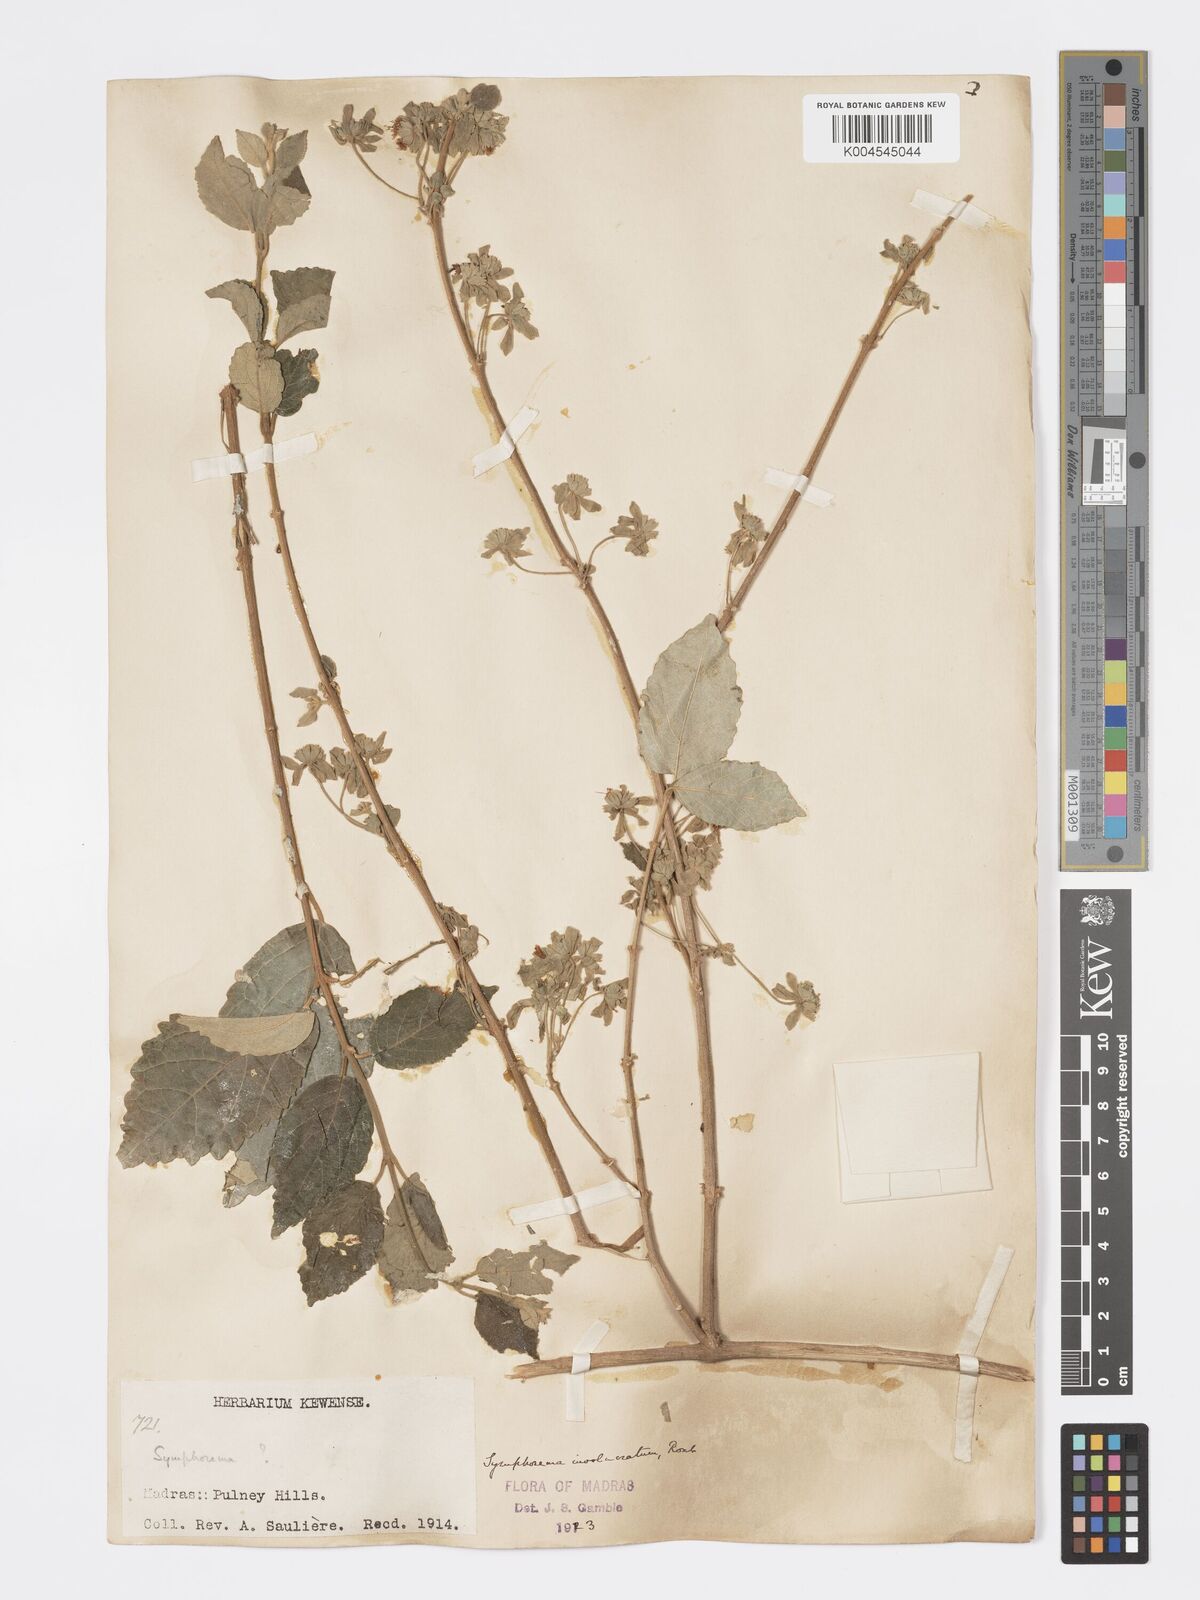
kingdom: Plantae
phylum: Tracheophyta
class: Magnoliopsida
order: Lamiales
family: Lamiaceae
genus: Symphorema
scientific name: Symphorema involucratum
